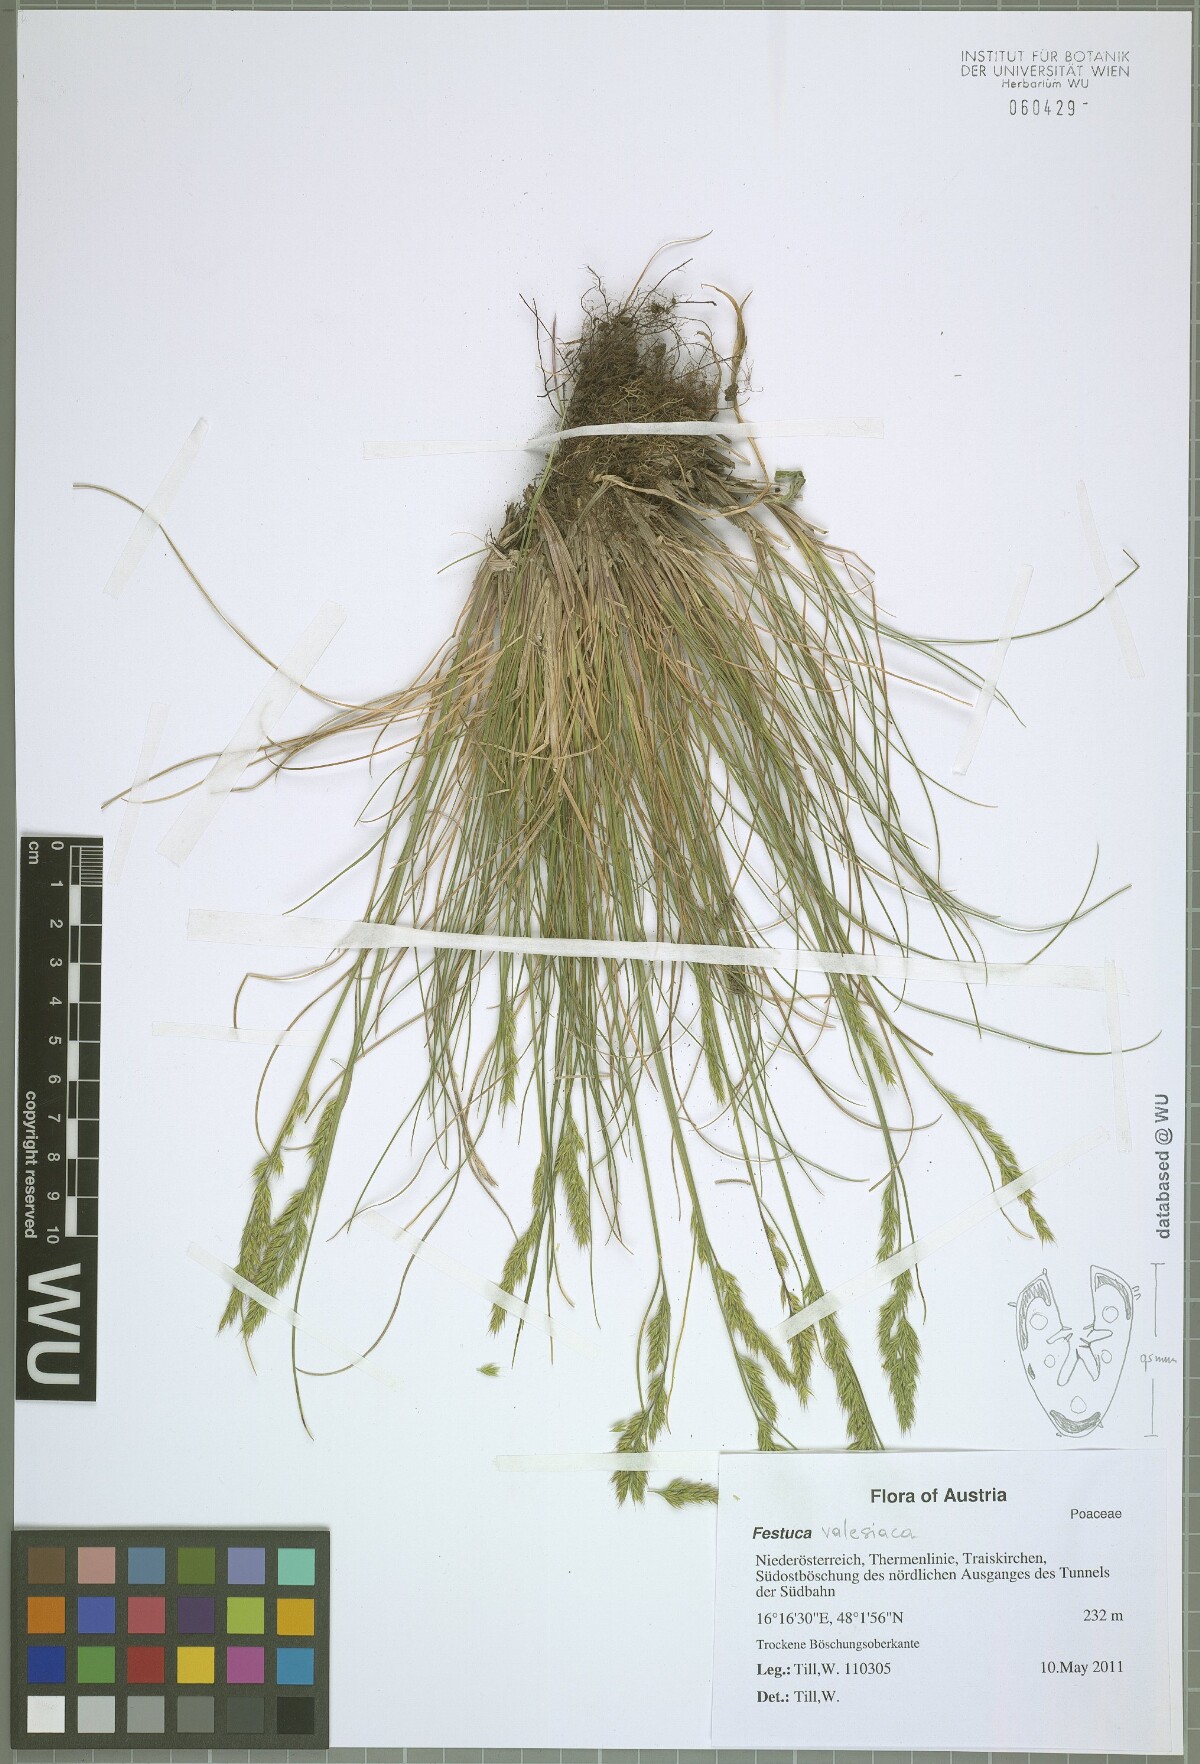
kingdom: Plantae
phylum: Tracheophyta
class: Liliopsida
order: Poales
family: Poaceae
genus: Festuca
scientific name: Festuca rupicola
